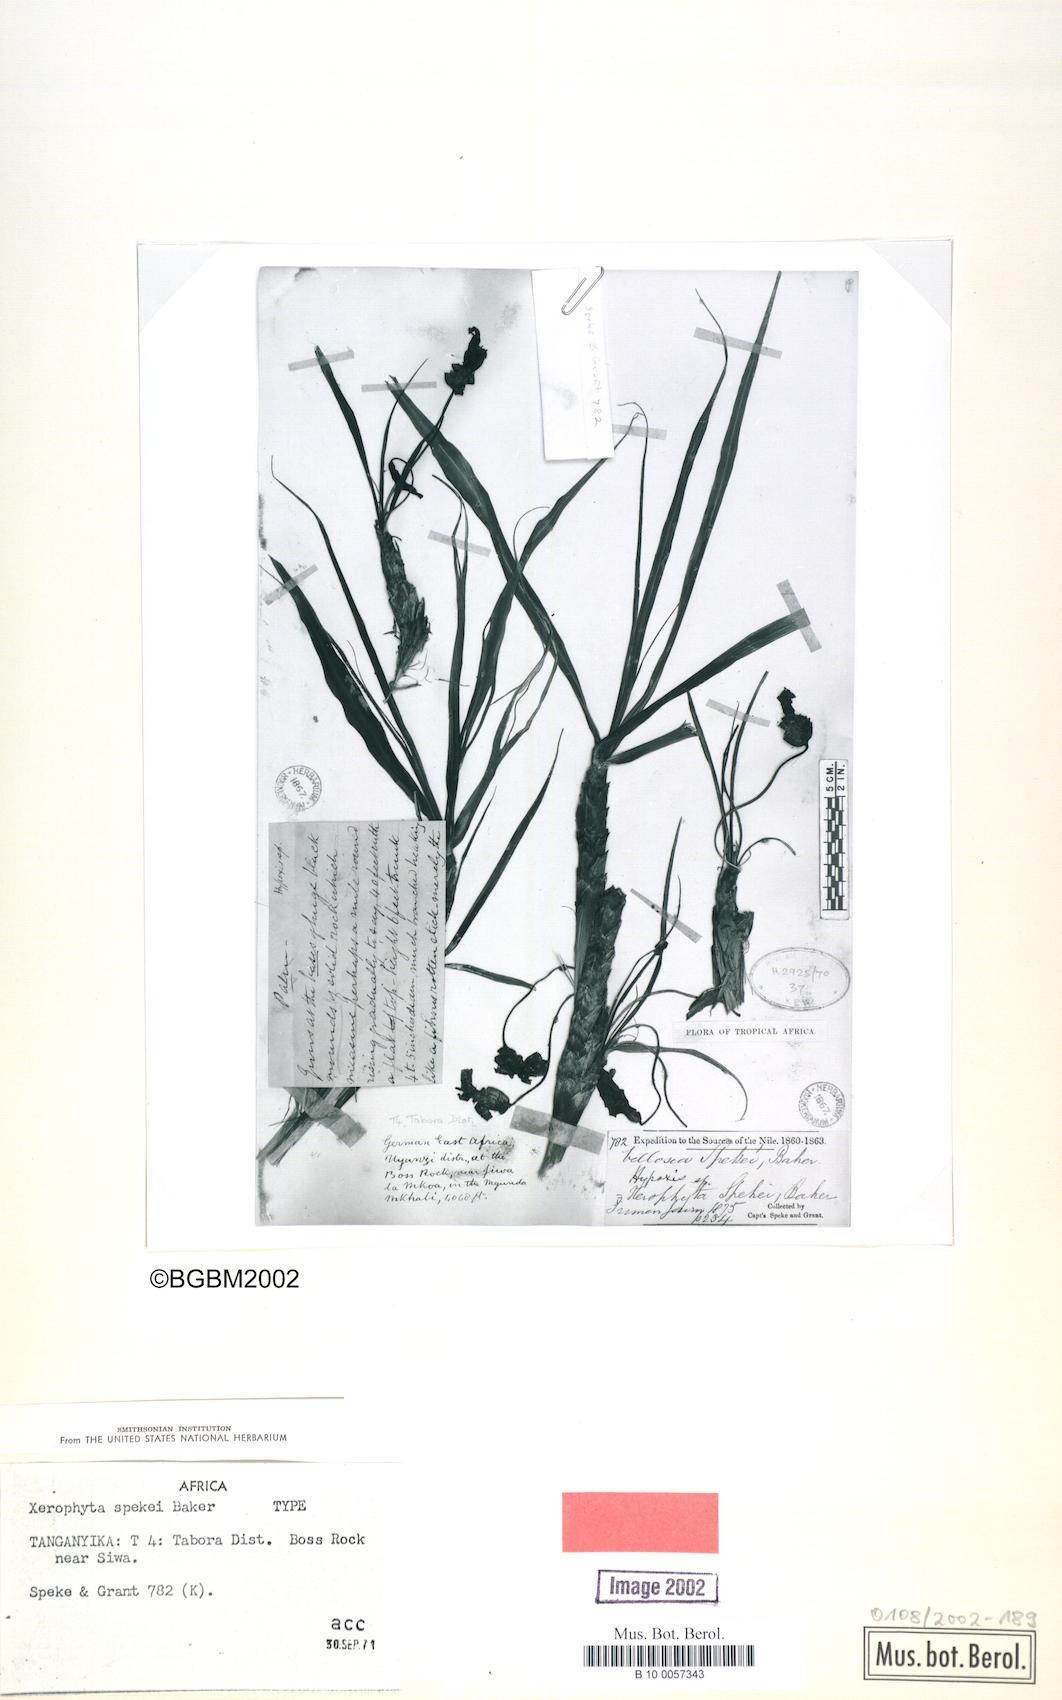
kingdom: Plantae
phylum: Tracheophyta
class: Liliopsida
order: Pandanales
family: Velloziaceae
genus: Xerophyta
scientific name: Xerophyta spekei
